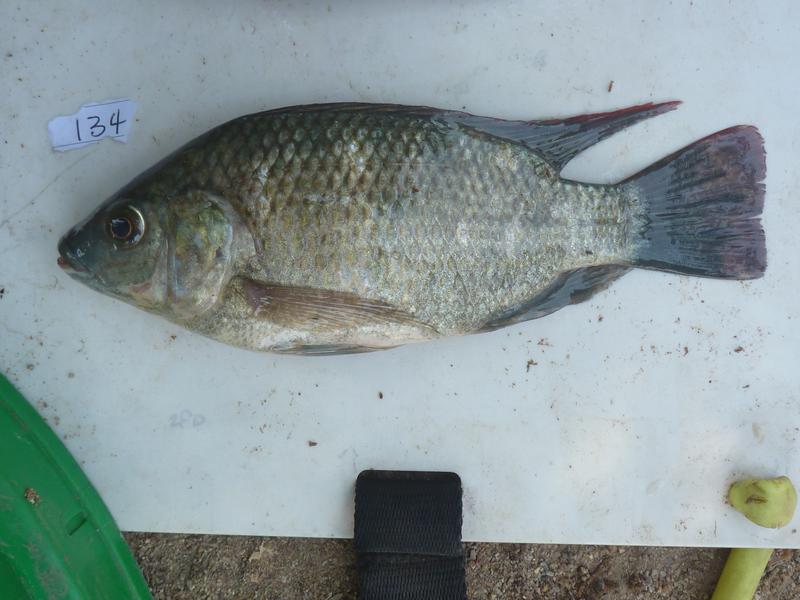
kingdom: Animalia
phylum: Chordata
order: Perciformes
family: Cichlidae
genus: Oreochromis
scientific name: Oreochromis
